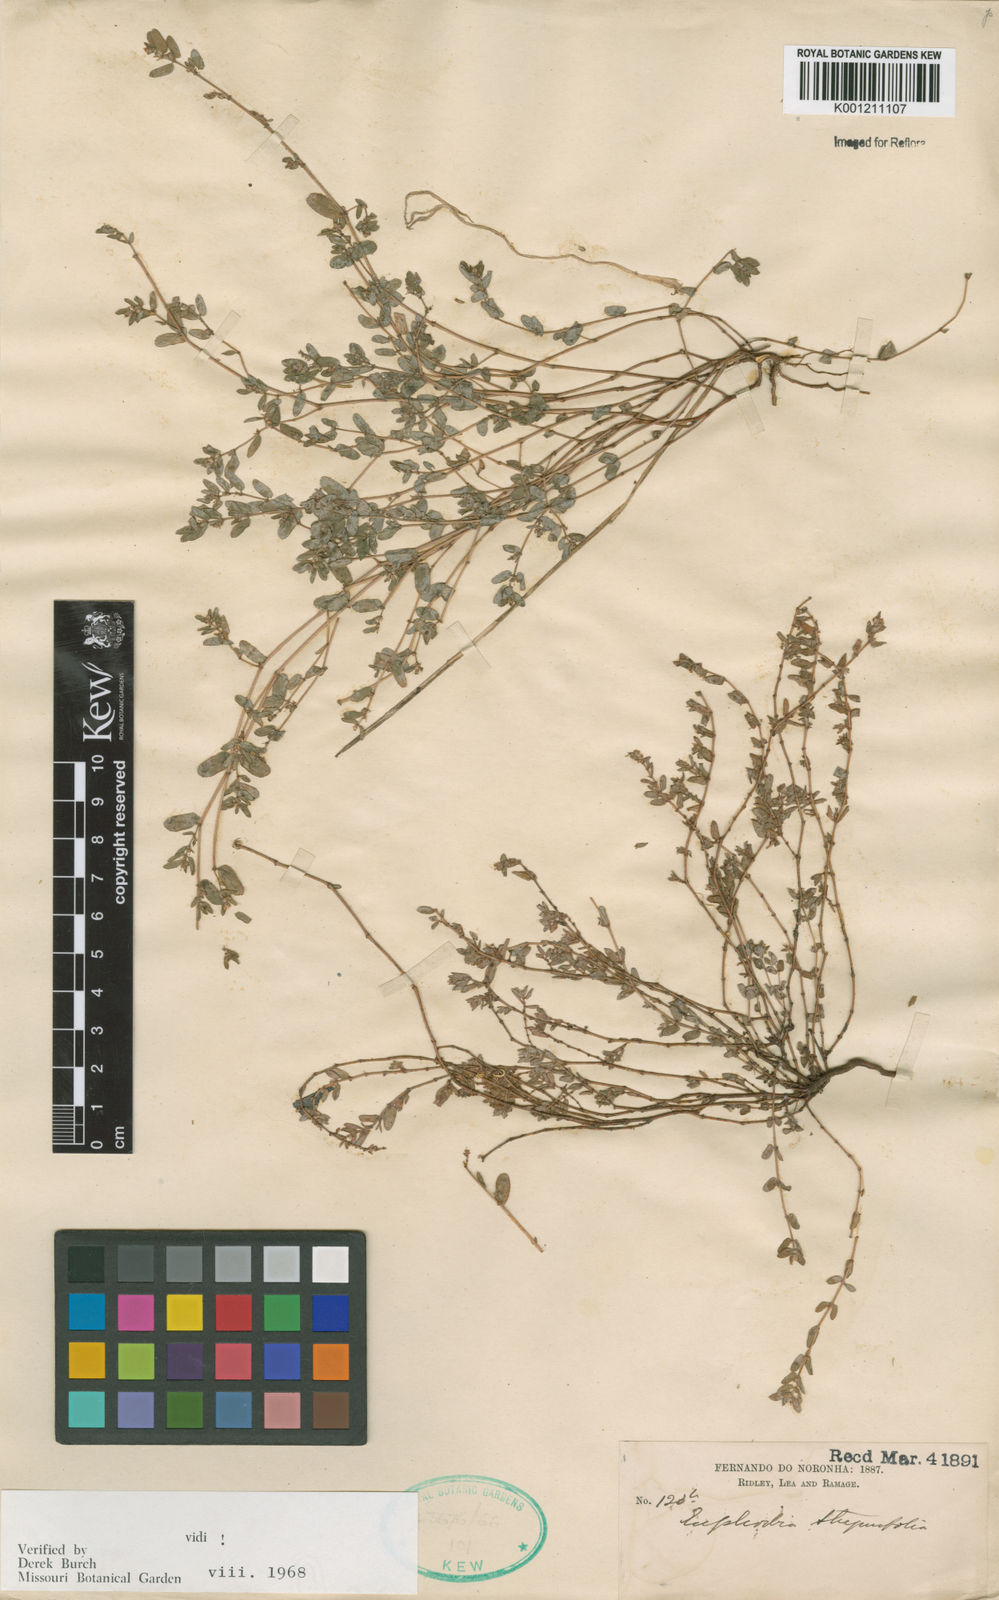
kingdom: Plantae
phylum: Tracheophyta
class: Magnoliopsida
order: Malpighiales
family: Euphorbiaceae
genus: Euphorbia
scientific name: Euphorbia thymifolia
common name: Gulf sandmat
